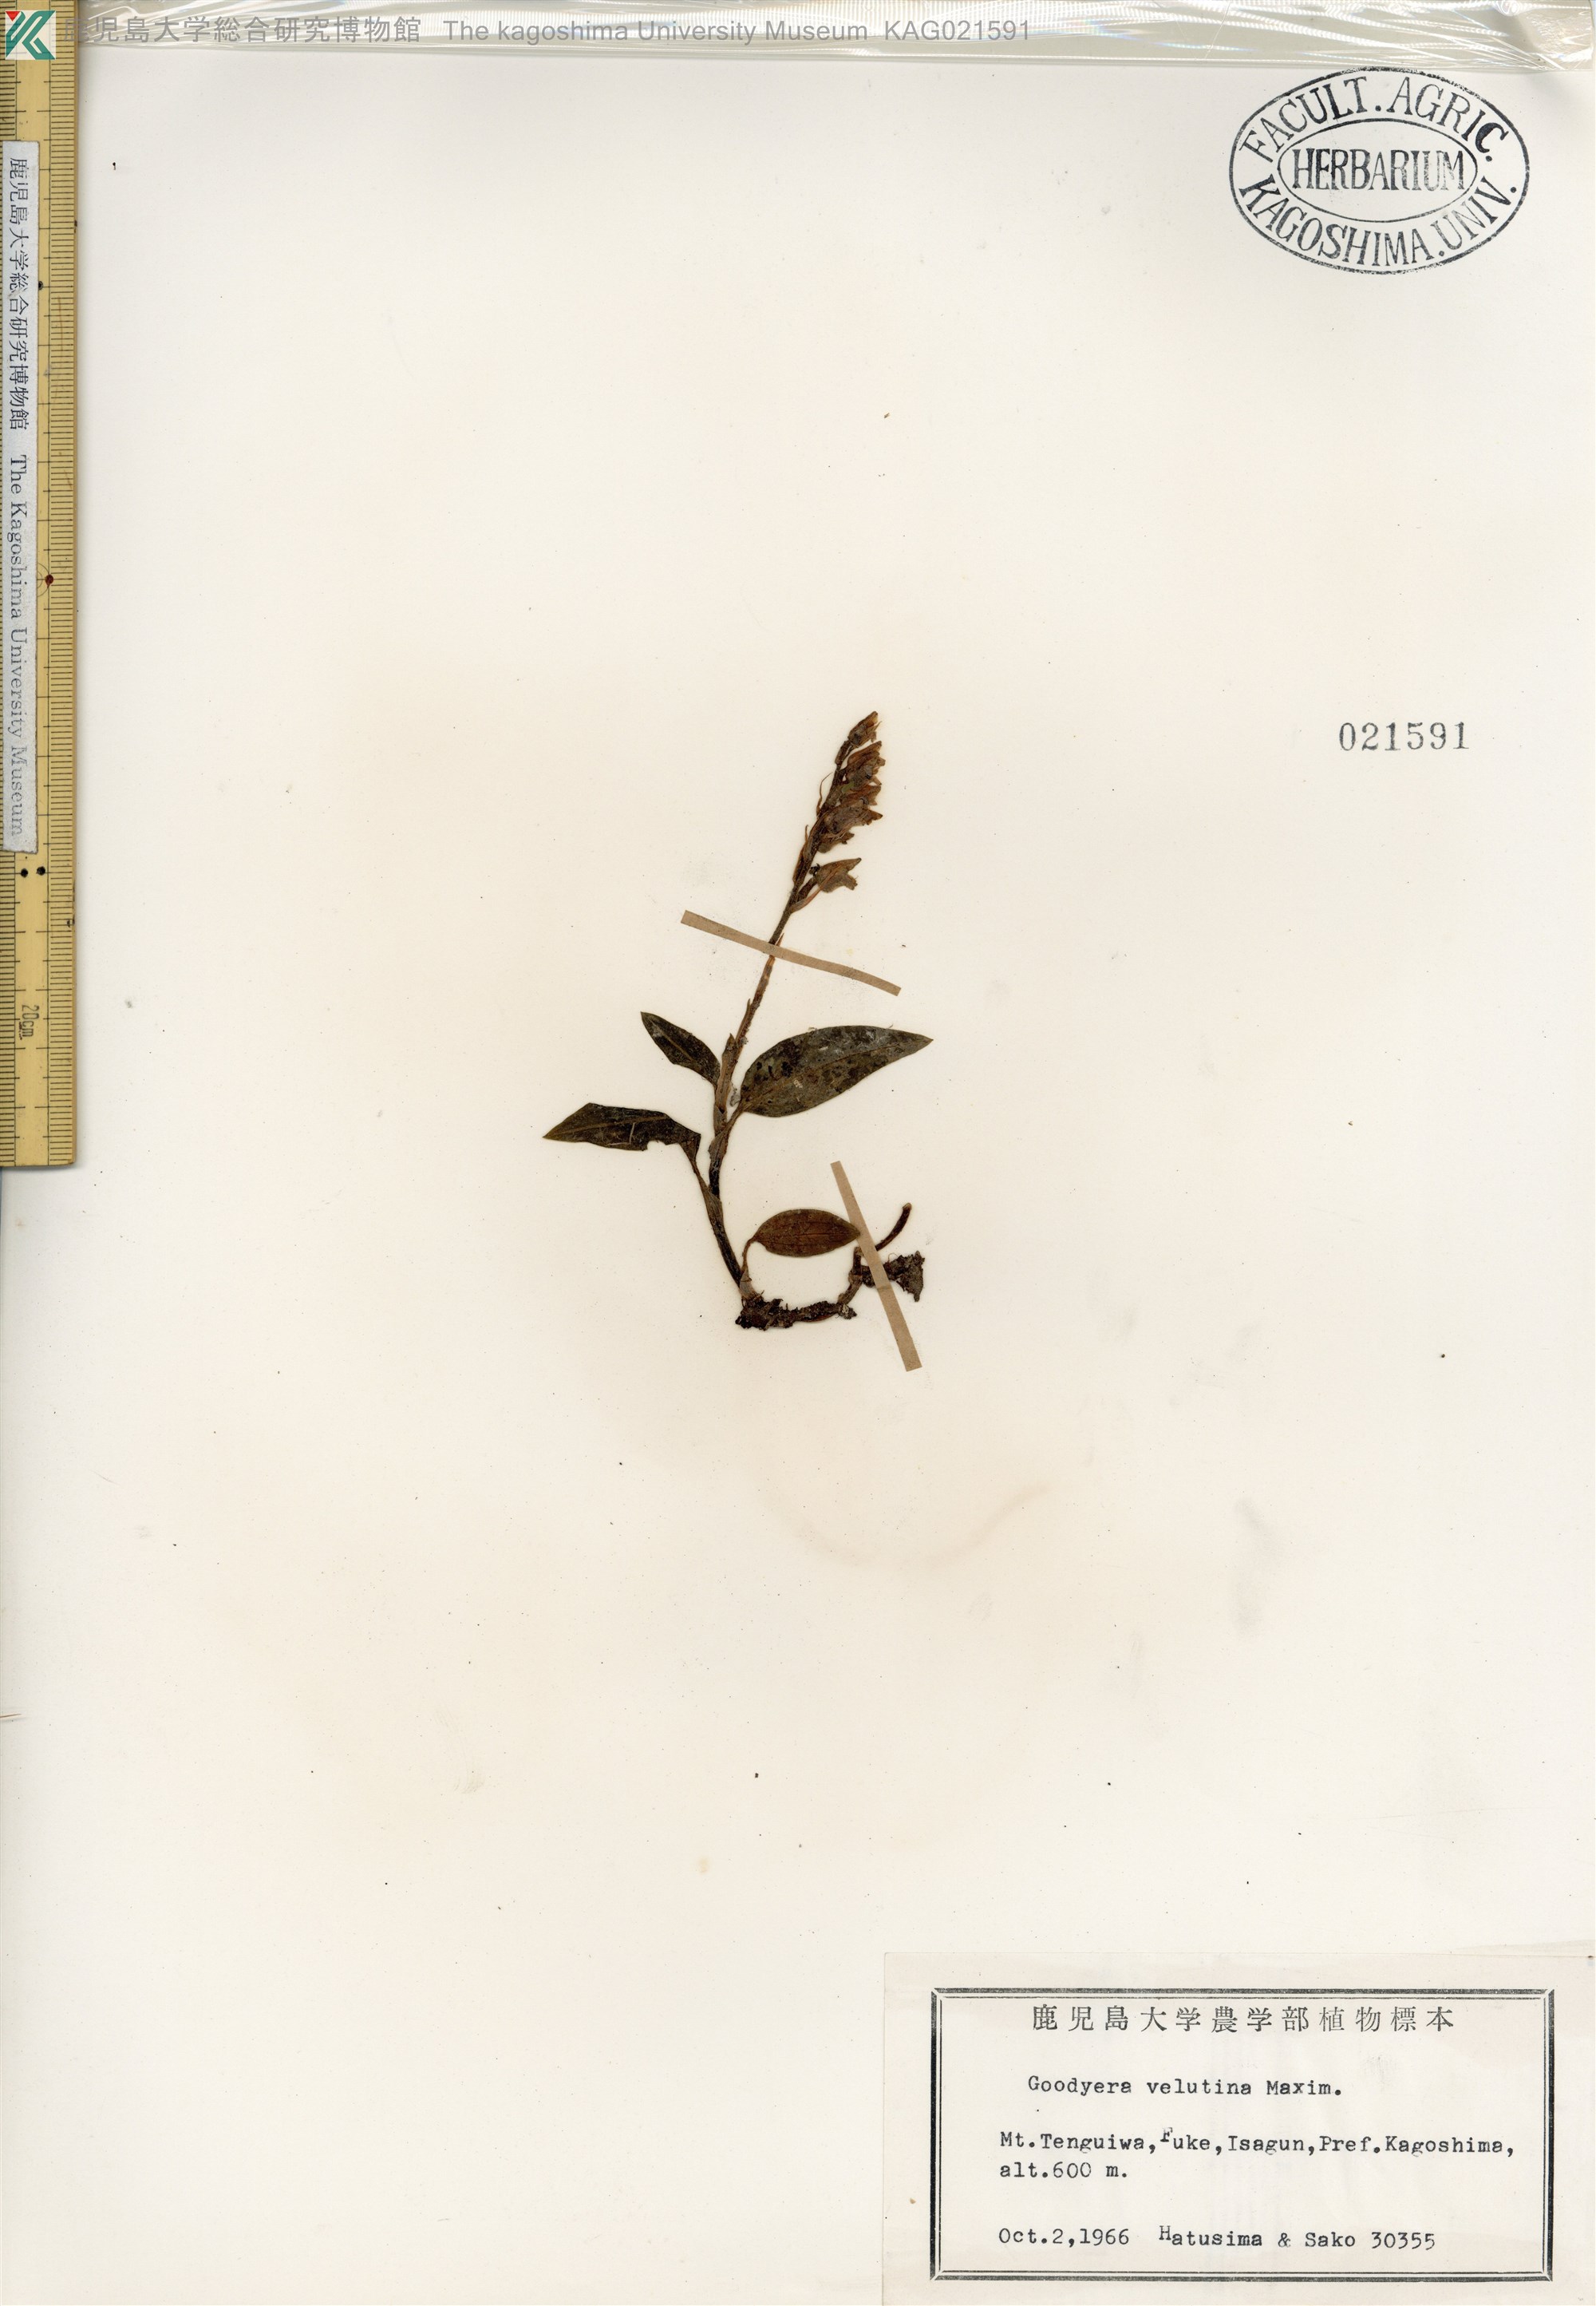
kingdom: Plantae
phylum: Tracheophyta
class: Liliopsida
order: Asparagales
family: Orchidaceae
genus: Goodyera
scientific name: Goodyera velutina
